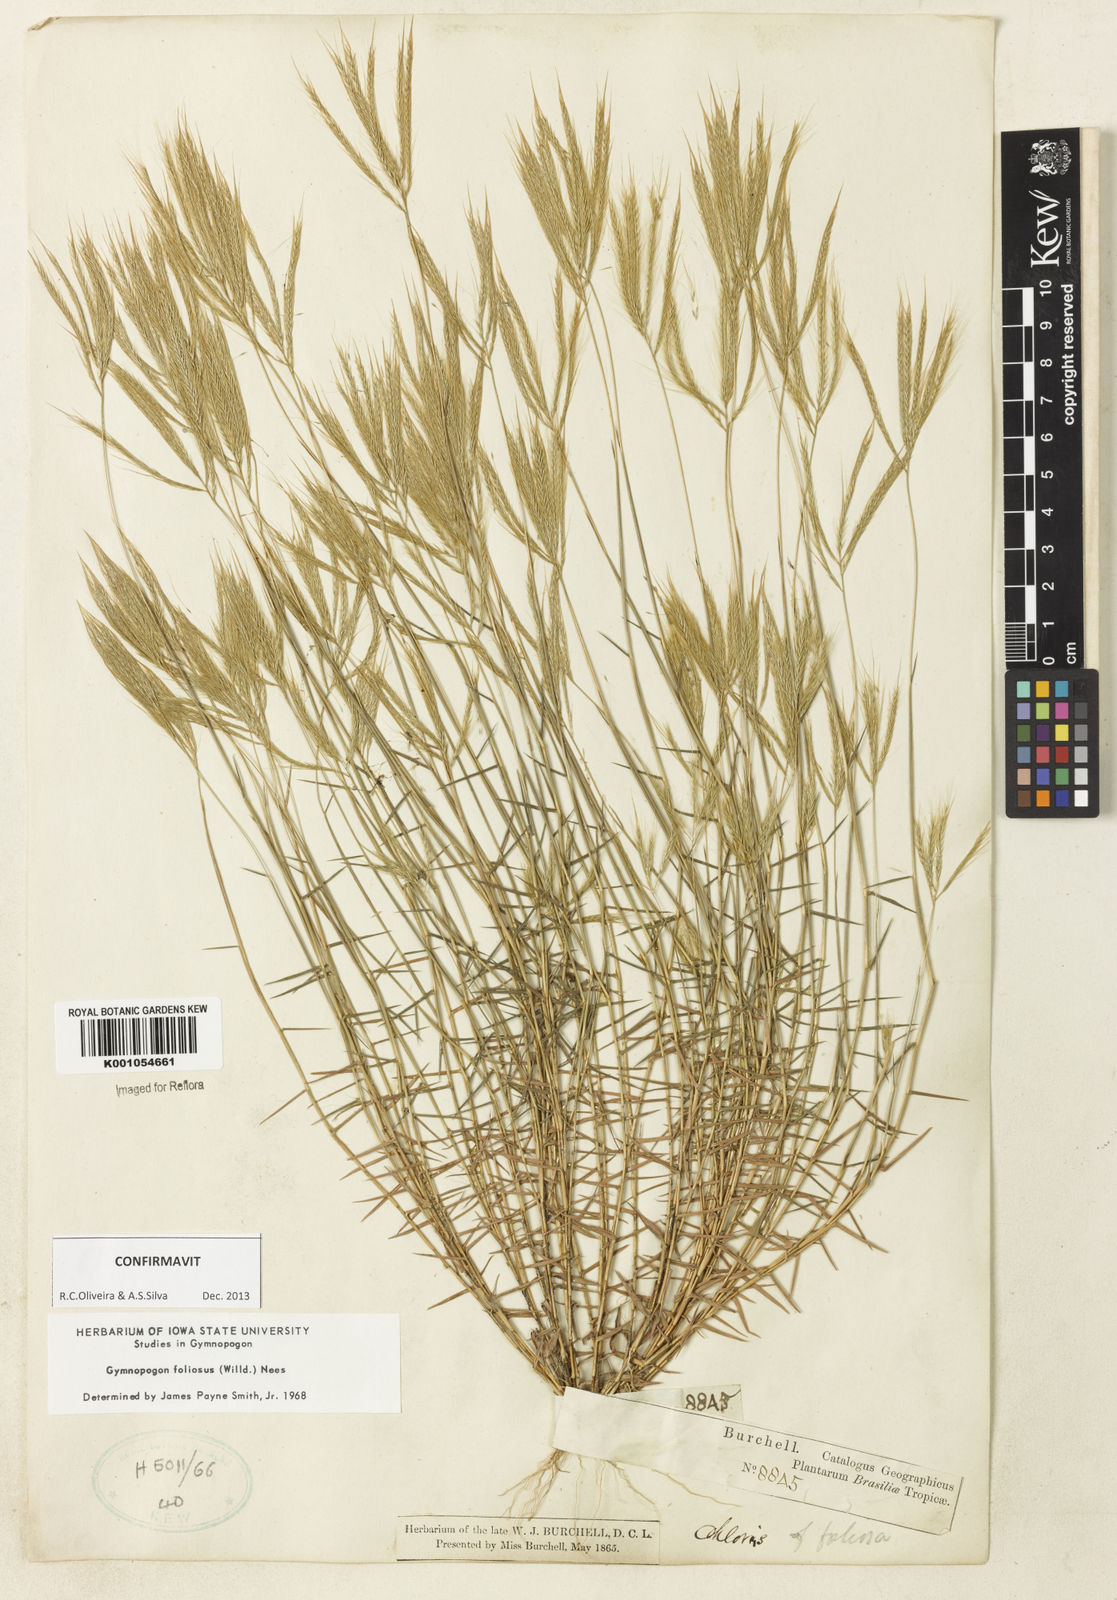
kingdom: Plantae
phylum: Tracheophyta
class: Liliopsida
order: Poales
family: Poaceae
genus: Gymnopogon
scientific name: Gymnopogon foliosus
